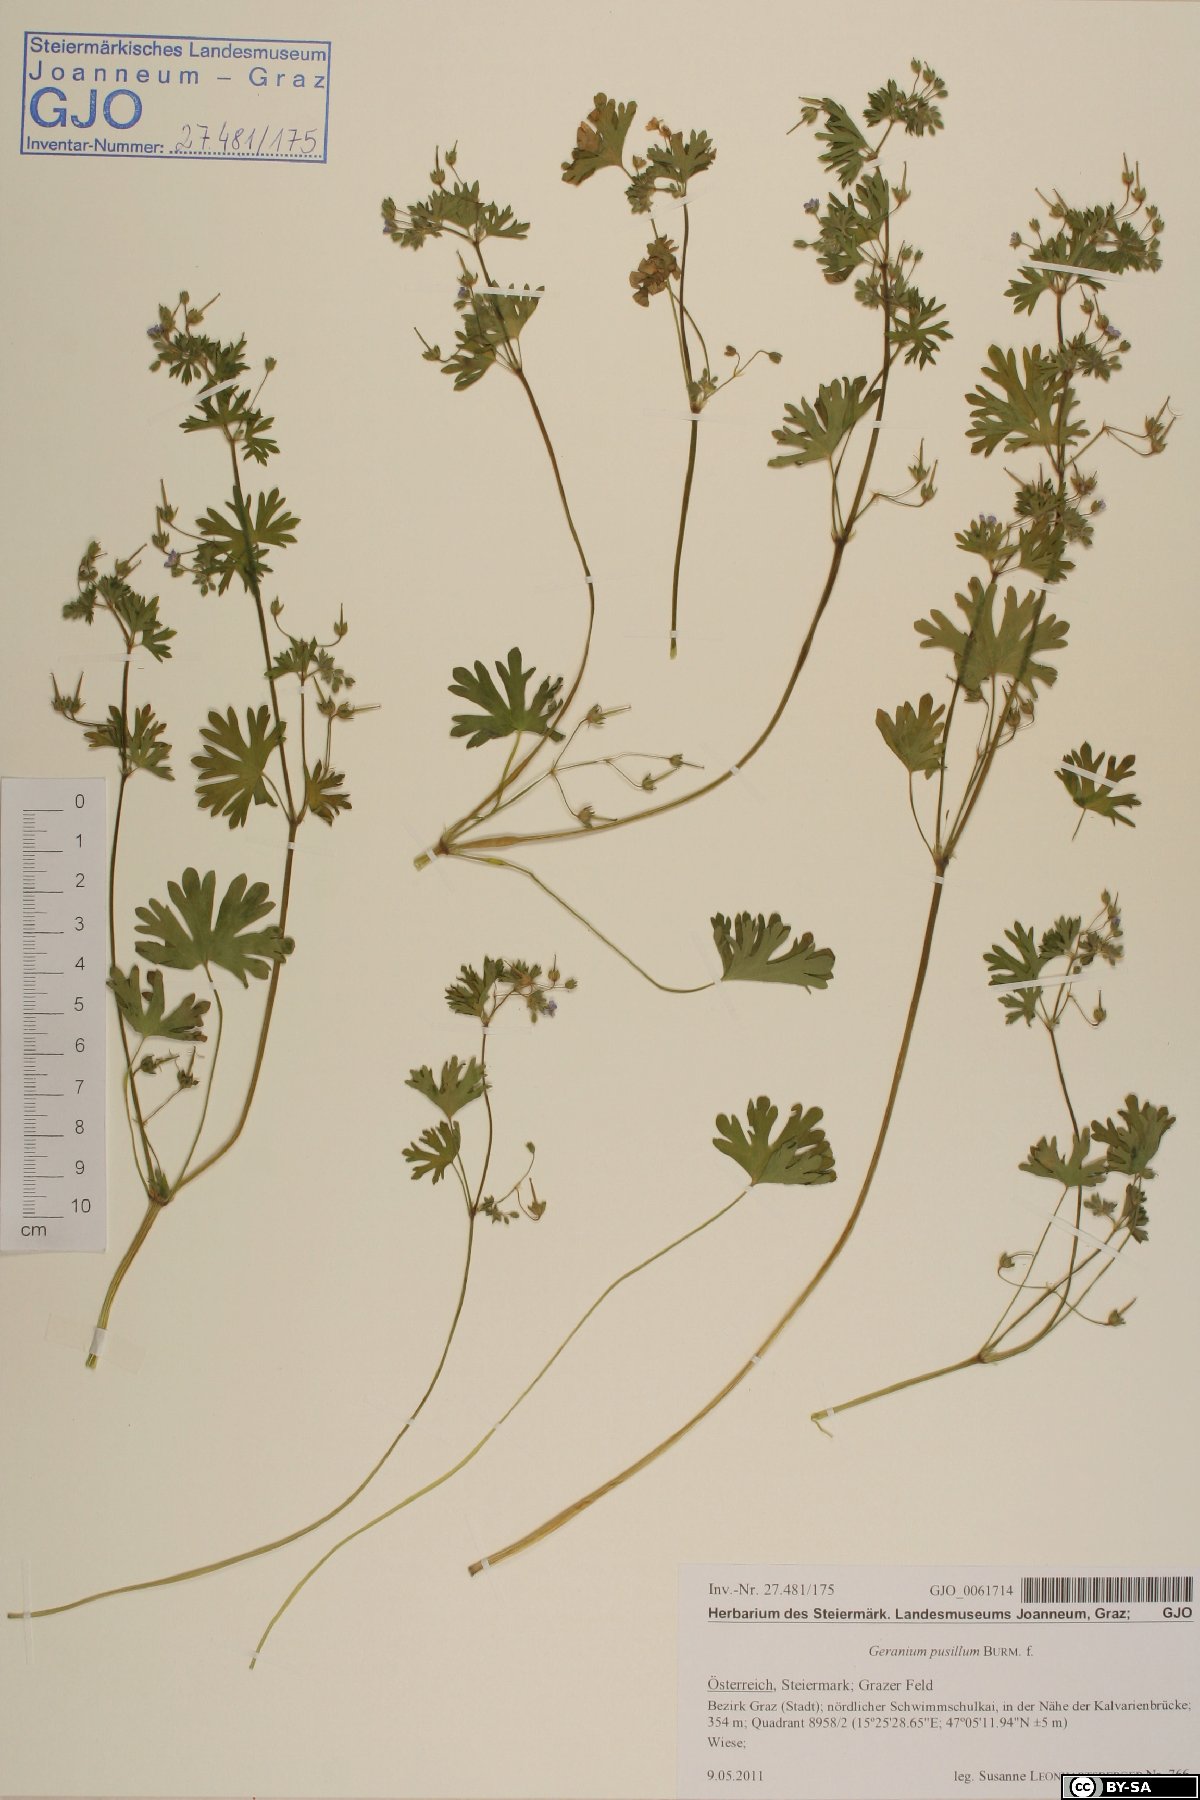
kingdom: Plantae
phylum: Tracheophyta
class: Magnoliopsida
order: Geraniales
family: Geraniaceae
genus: Geranium
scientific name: Geranium pusillum
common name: Small geranium
